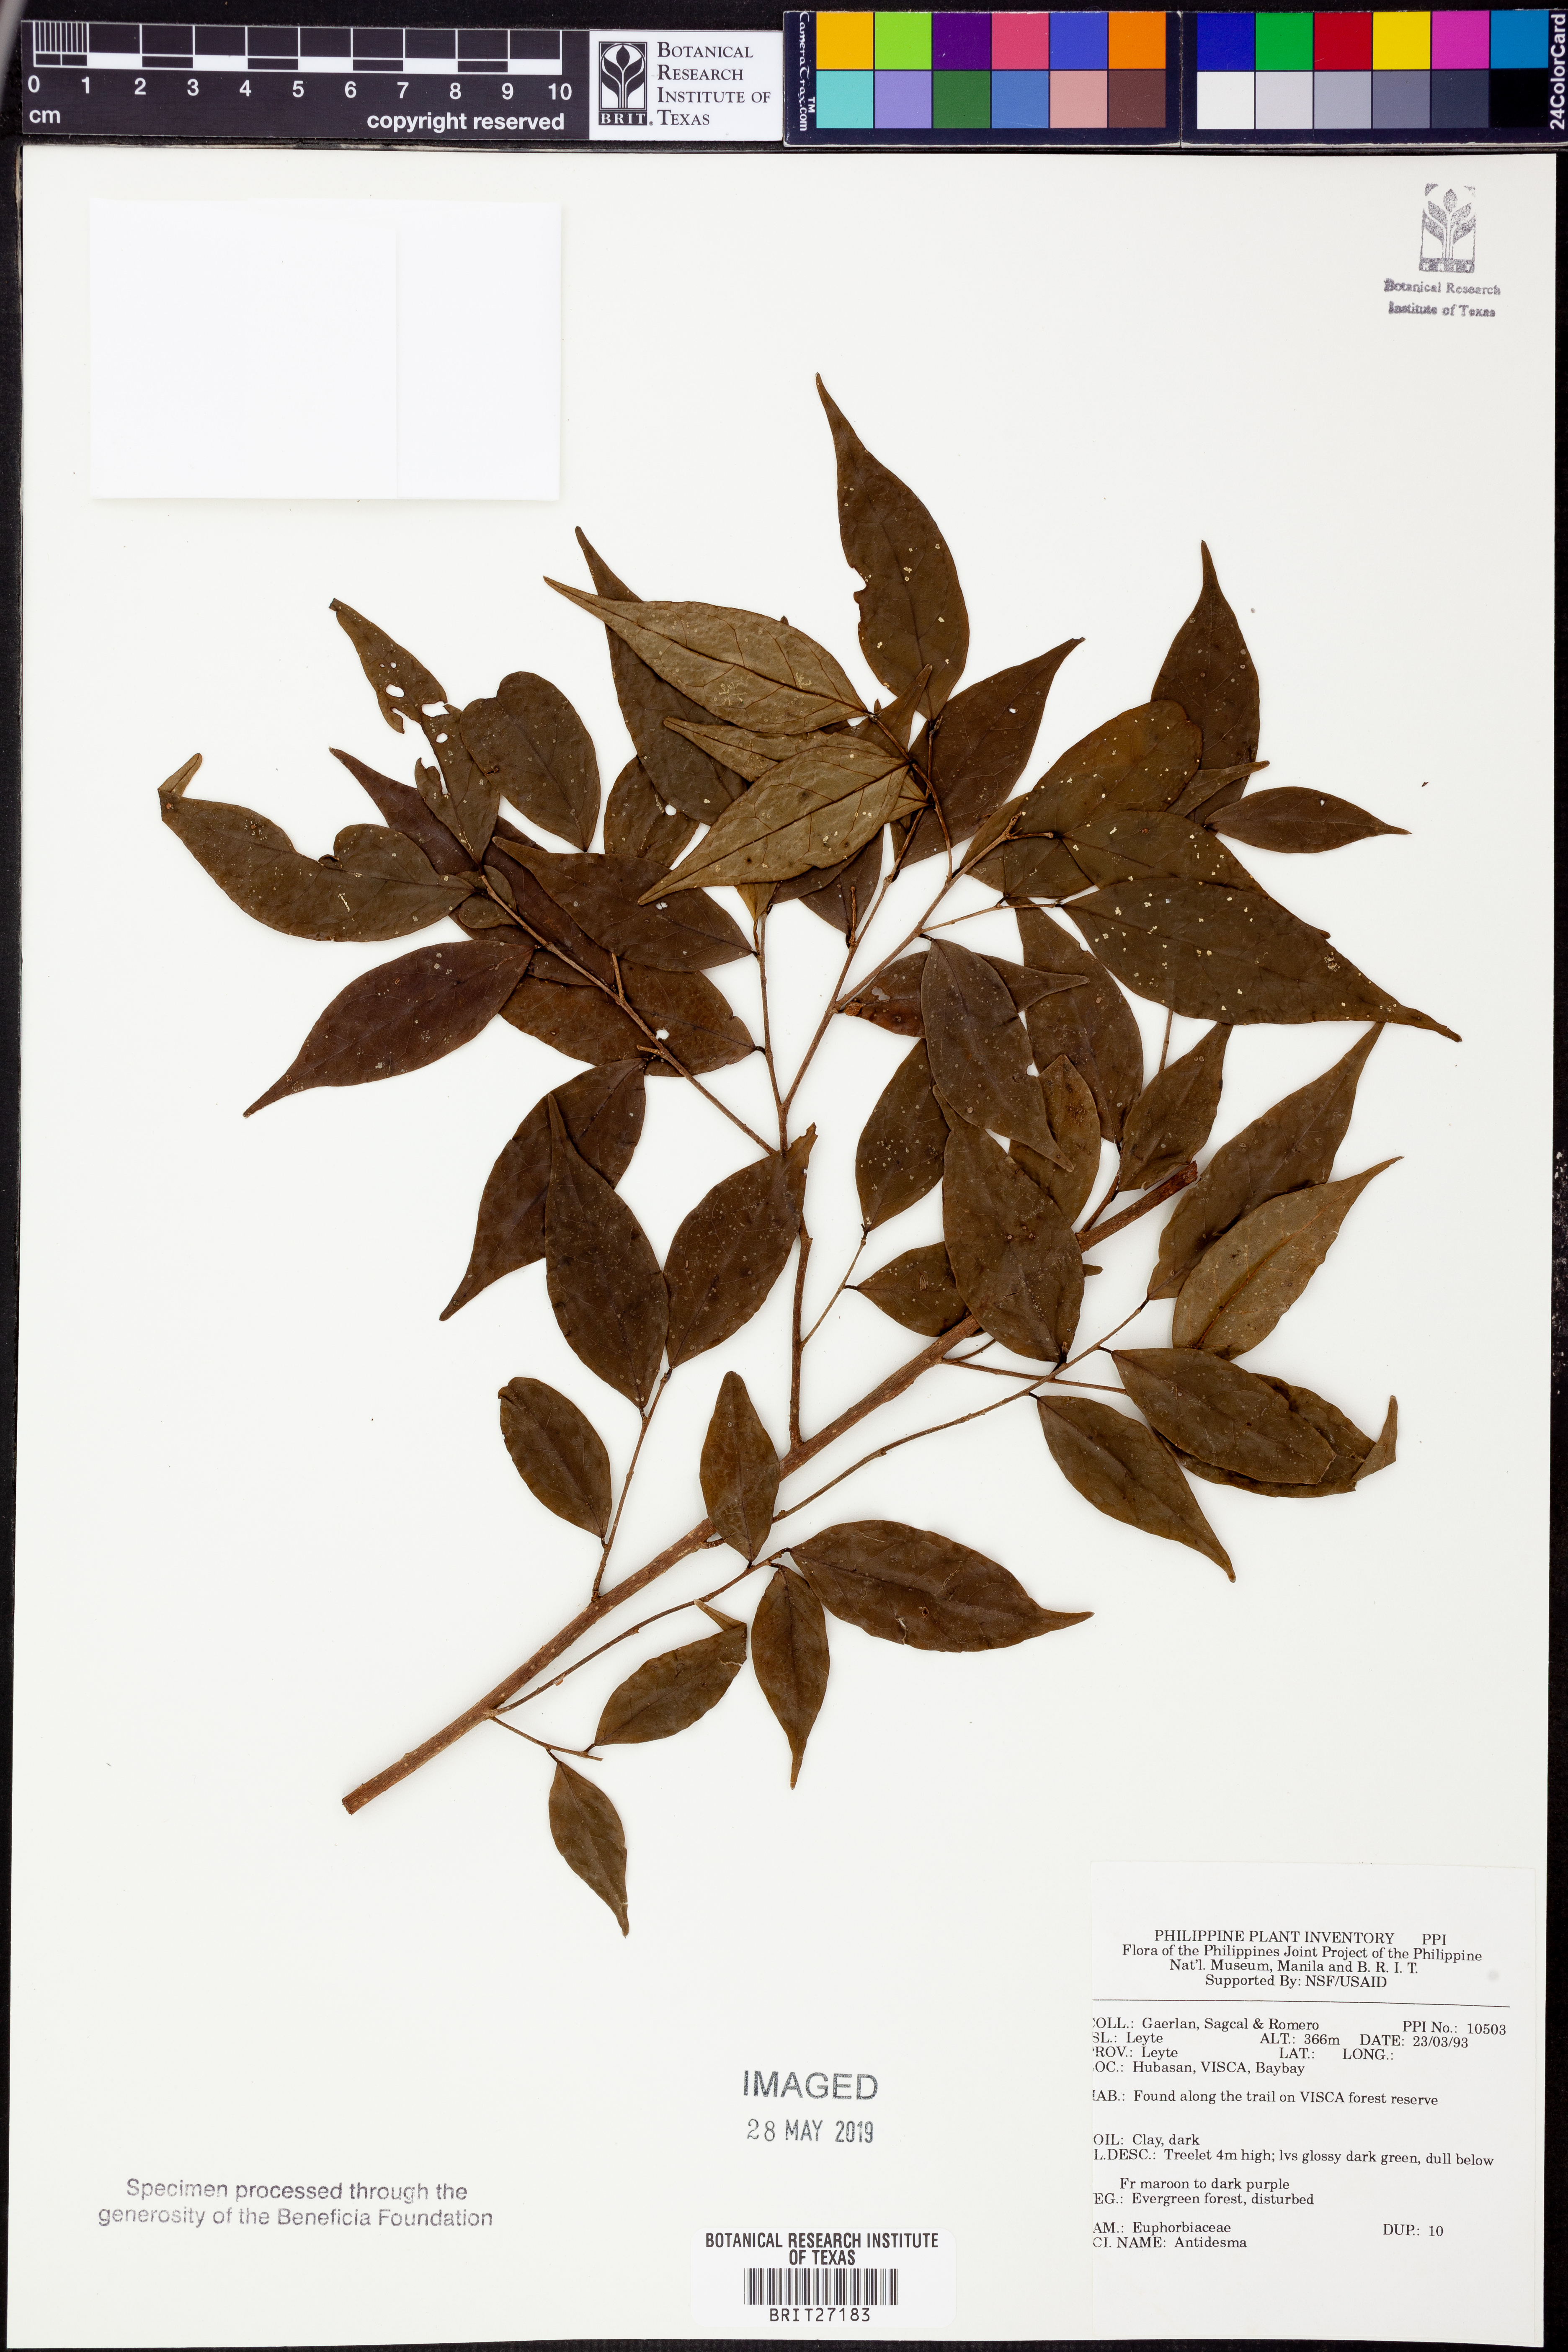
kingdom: Plantae
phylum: Tracheophyta
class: Magnoliopsida
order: Malpighiales
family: Phyllanthaceae
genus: Antidesma
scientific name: Antidesma
